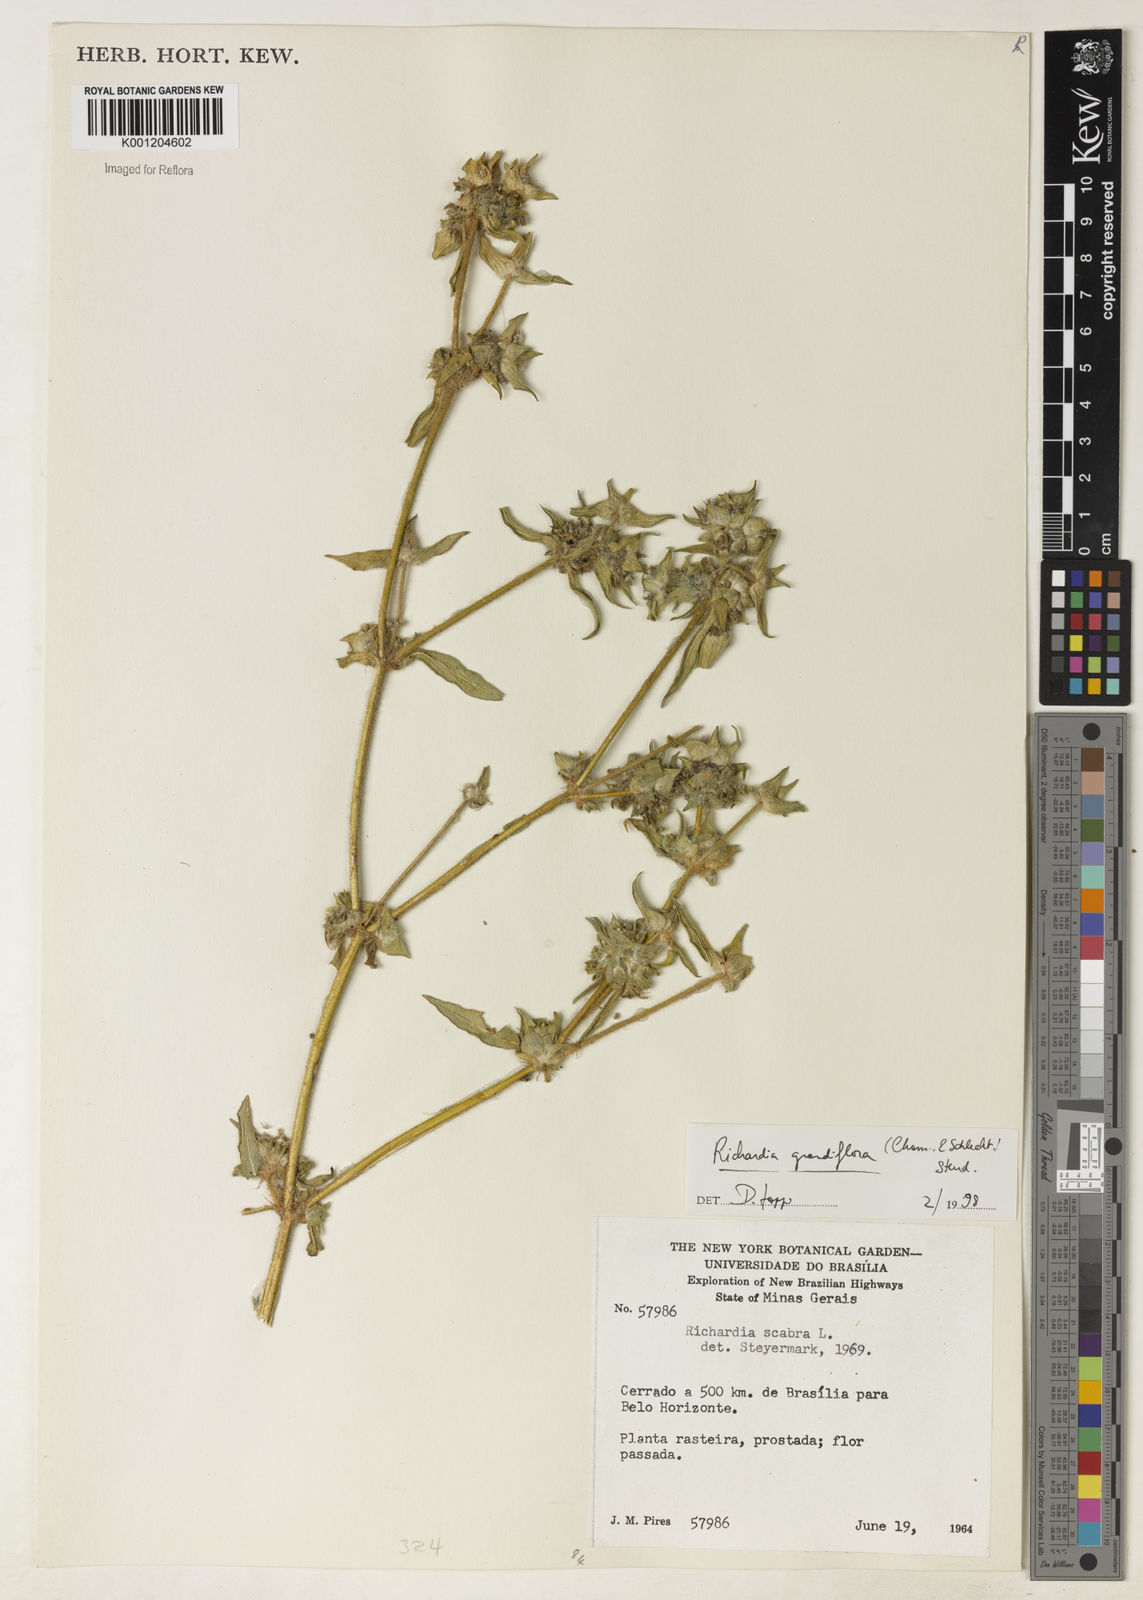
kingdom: Plantae
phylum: Tracheophyta
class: Magnoliopsida
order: Gentianales
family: Rubiaceae
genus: Richardia
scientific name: Richardia grandiflora
